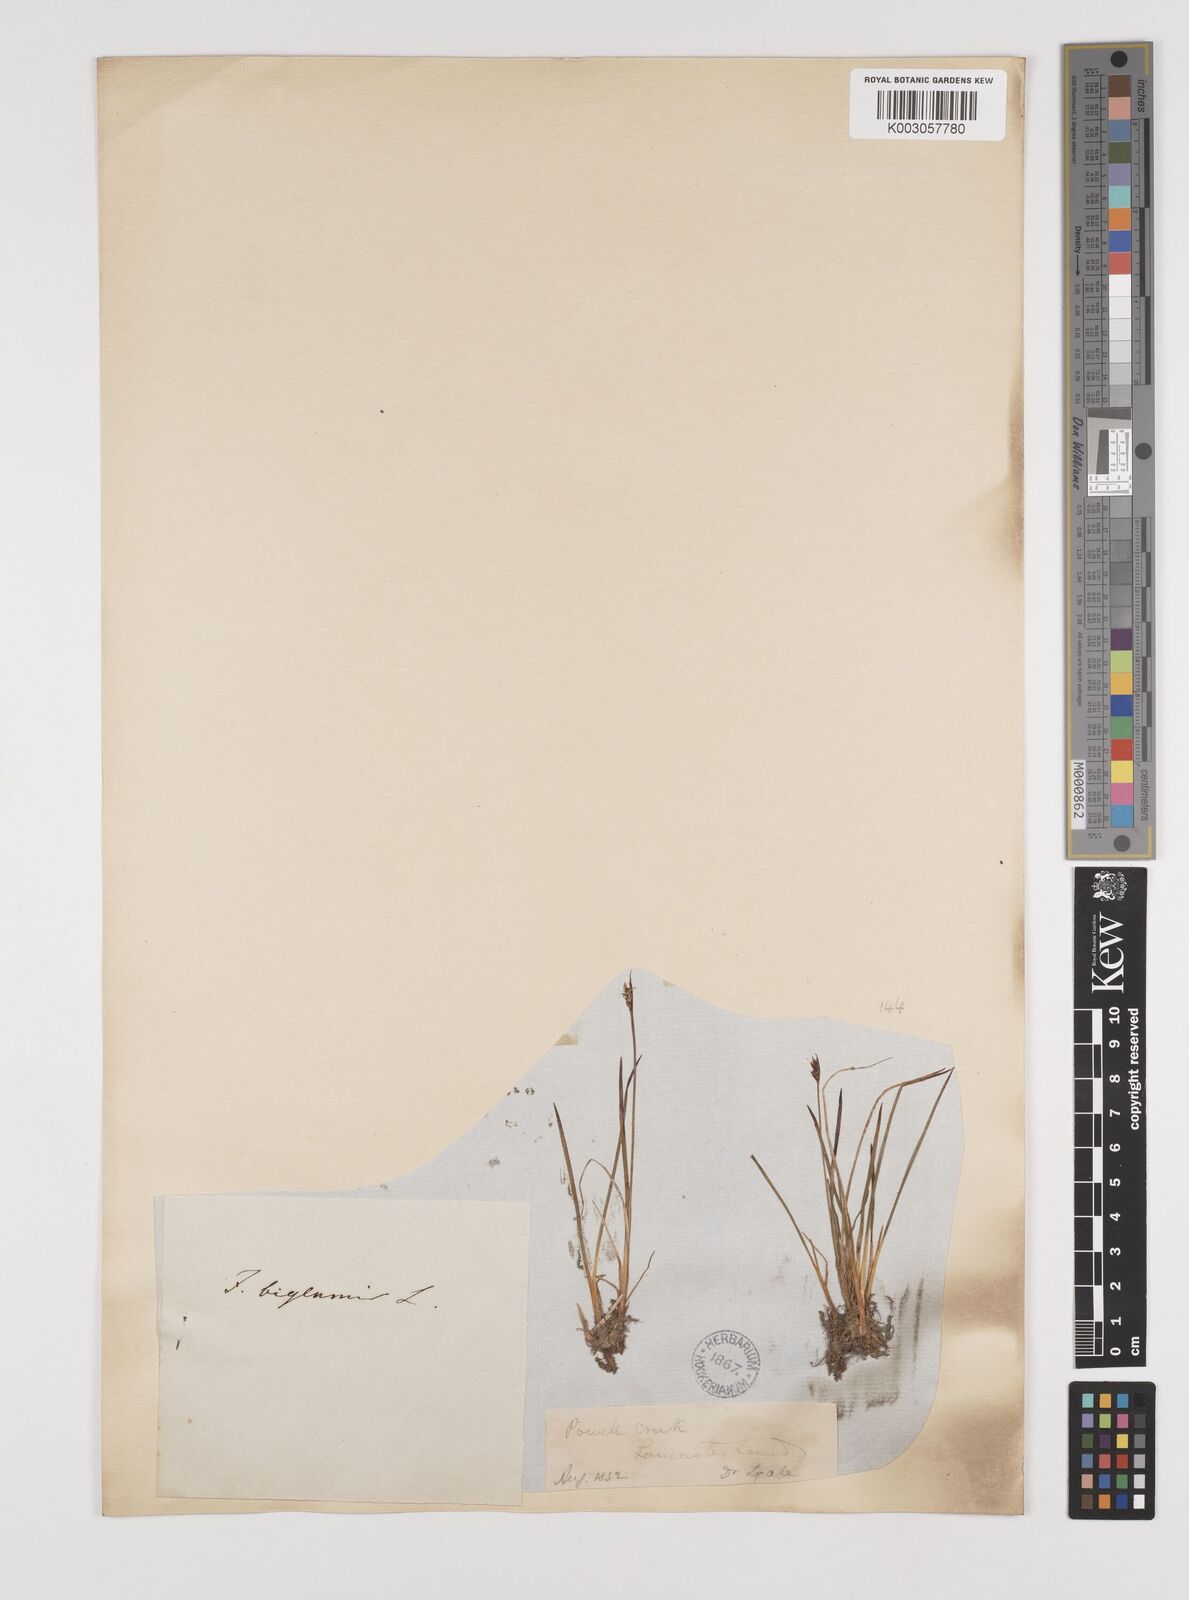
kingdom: Plantae
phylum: Tracheophyta
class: Liliopsida
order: Poales
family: Juncaceae
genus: Juncus
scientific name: Juncus biglumis
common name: Two-flowered rush
